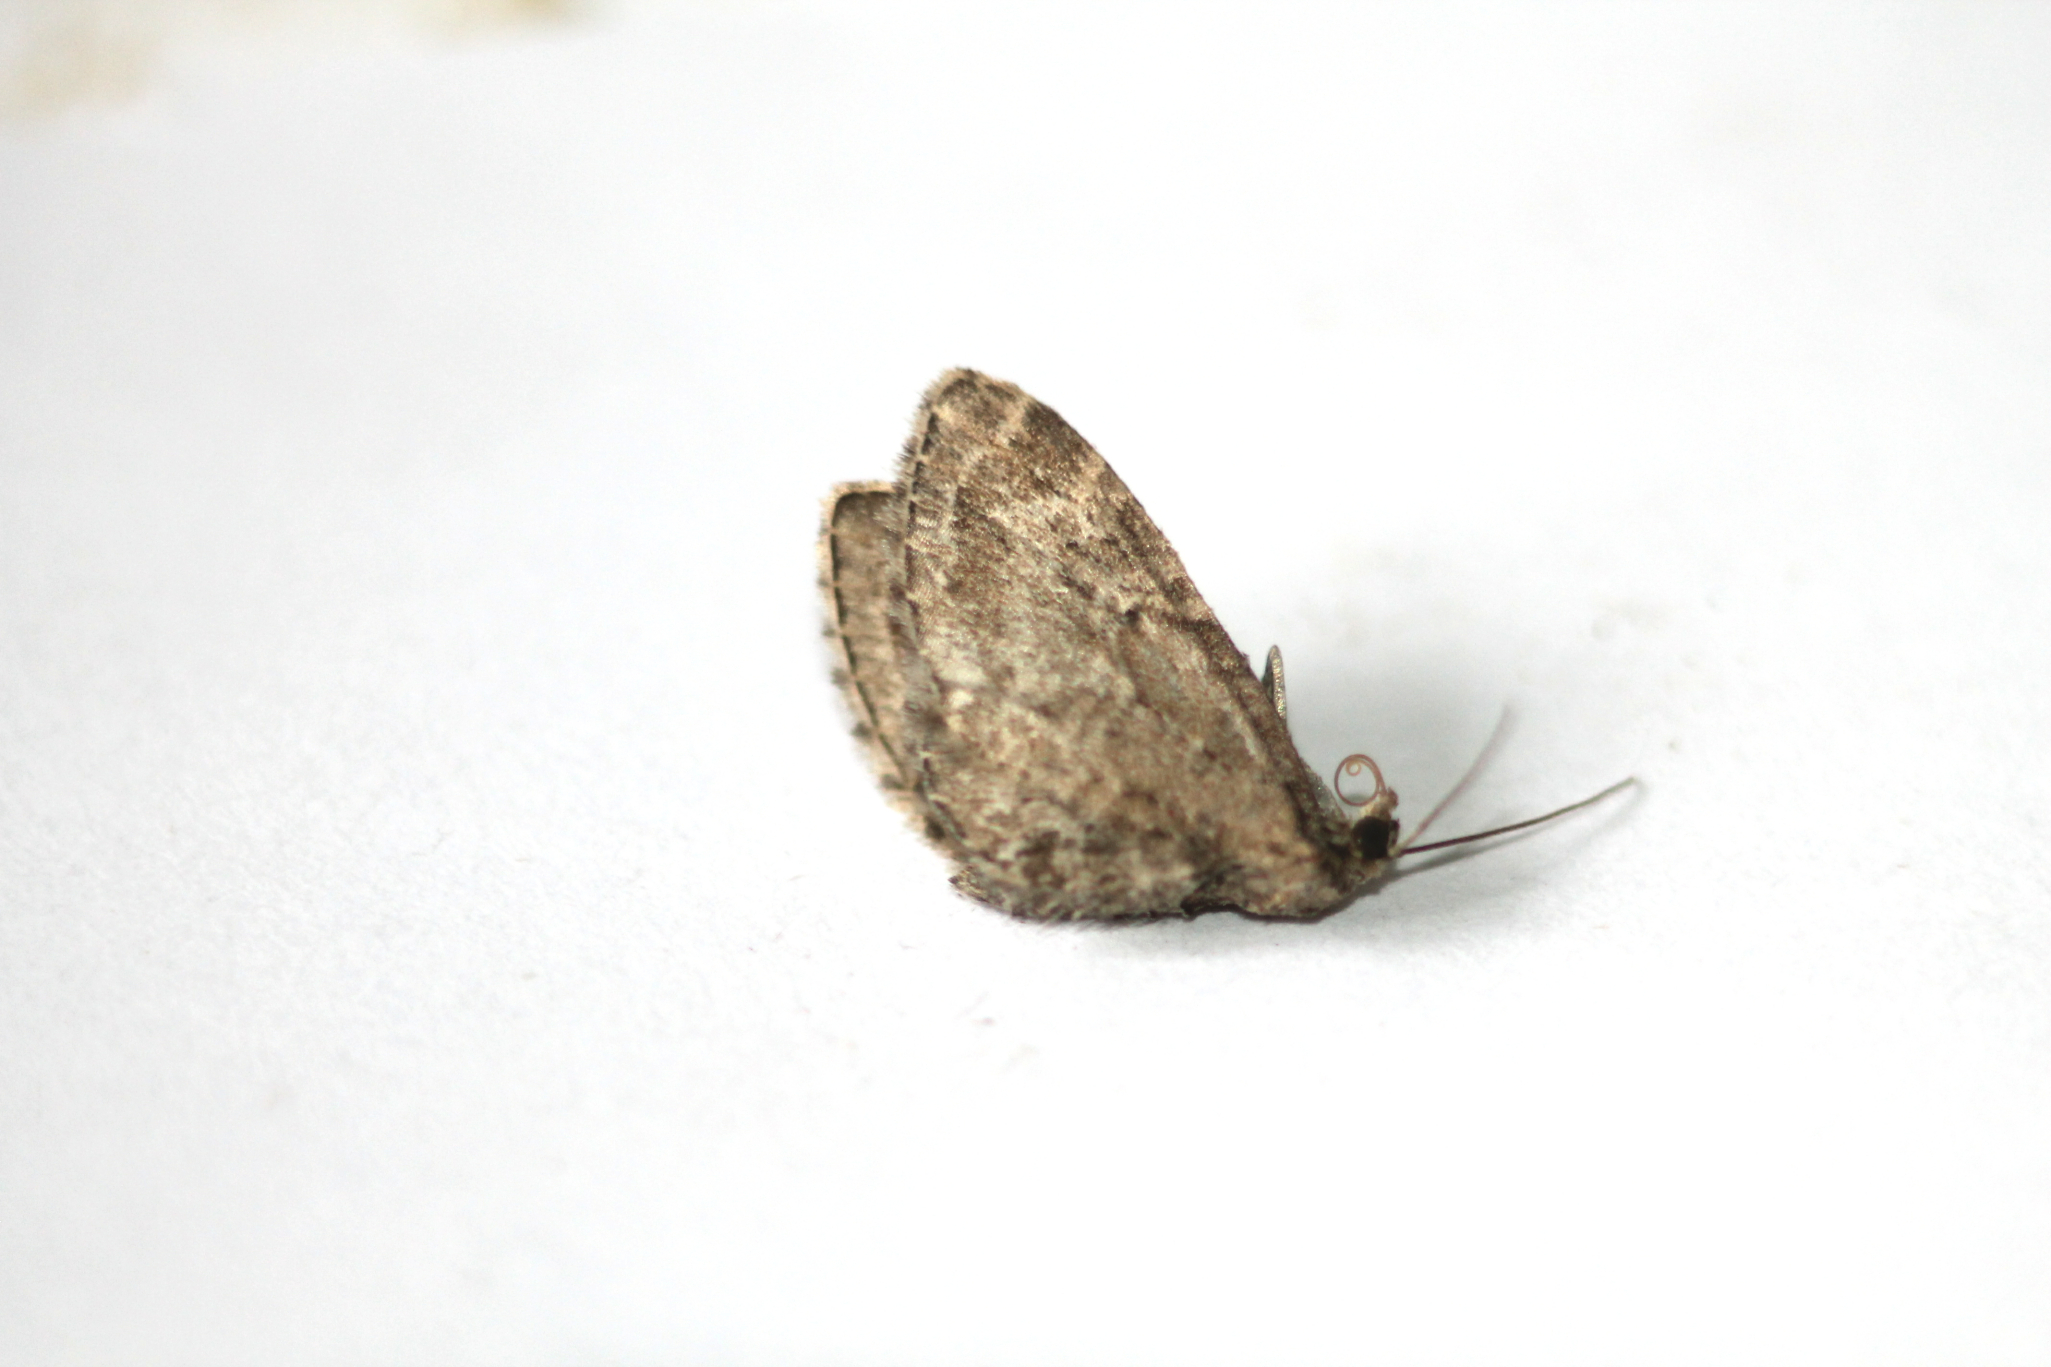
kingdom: Animalia
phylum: Arthropoda
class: Insecta
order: Lepidoptera
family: Geometridae
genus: Eupithecia
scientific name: Eupithecia vulgata
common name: Common pug
